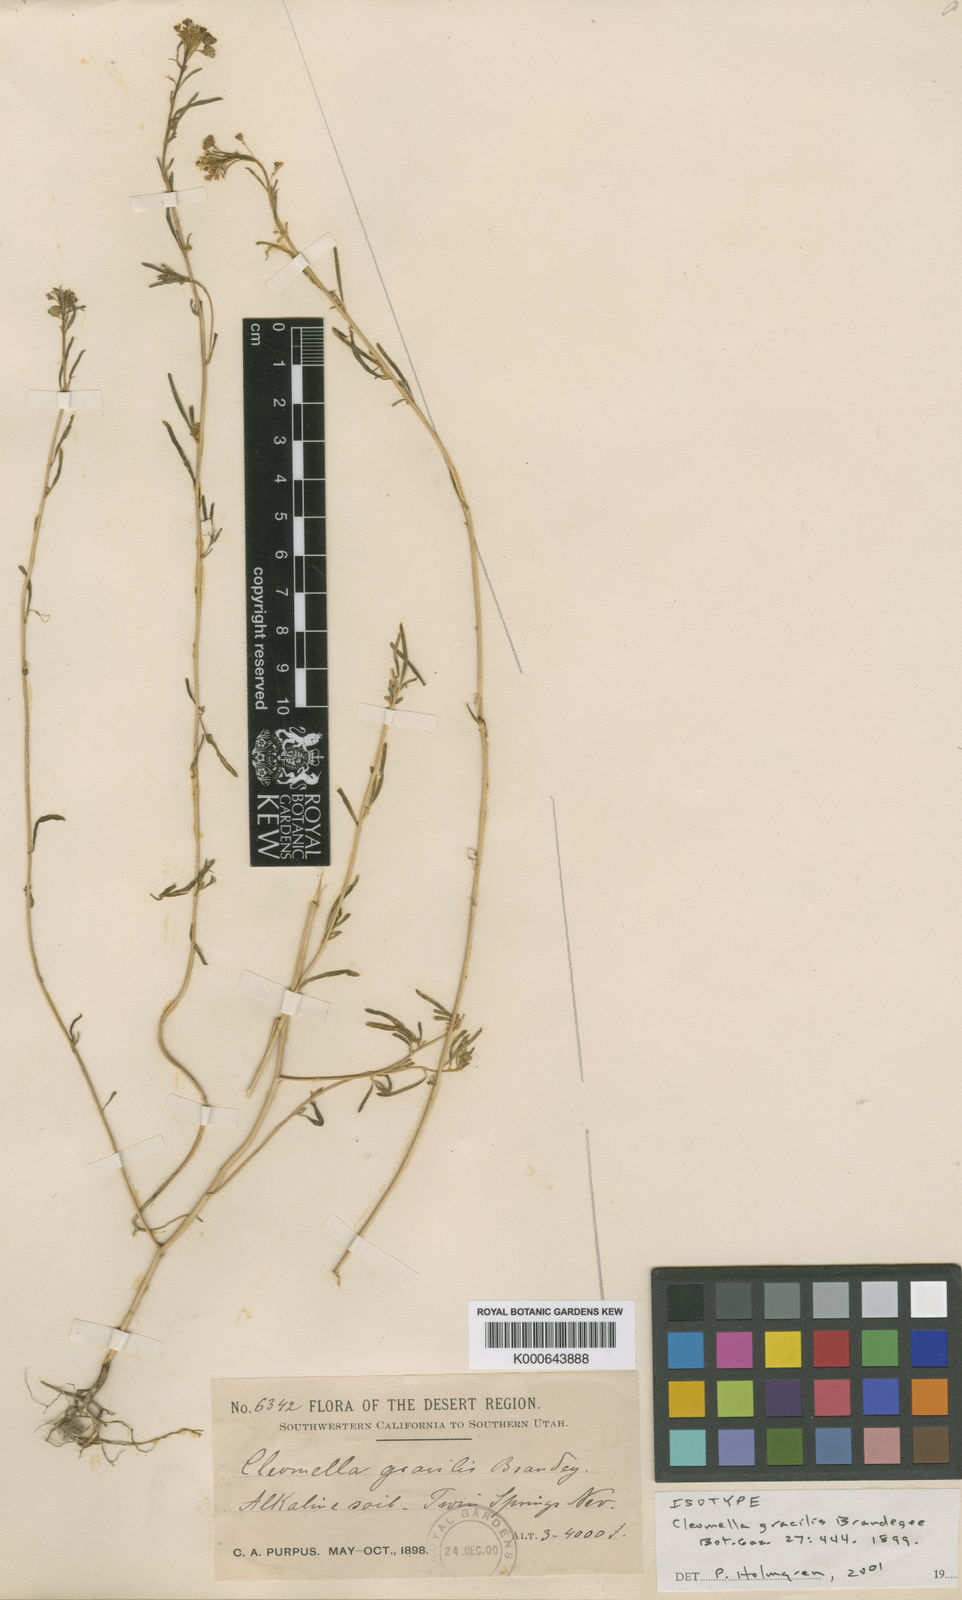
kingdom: Plantae
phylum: Tracheophyta
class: Magnoliopsida
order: Brassicales
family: Cleomaceae
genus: Cleomella
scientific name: Cleomella parviflora
